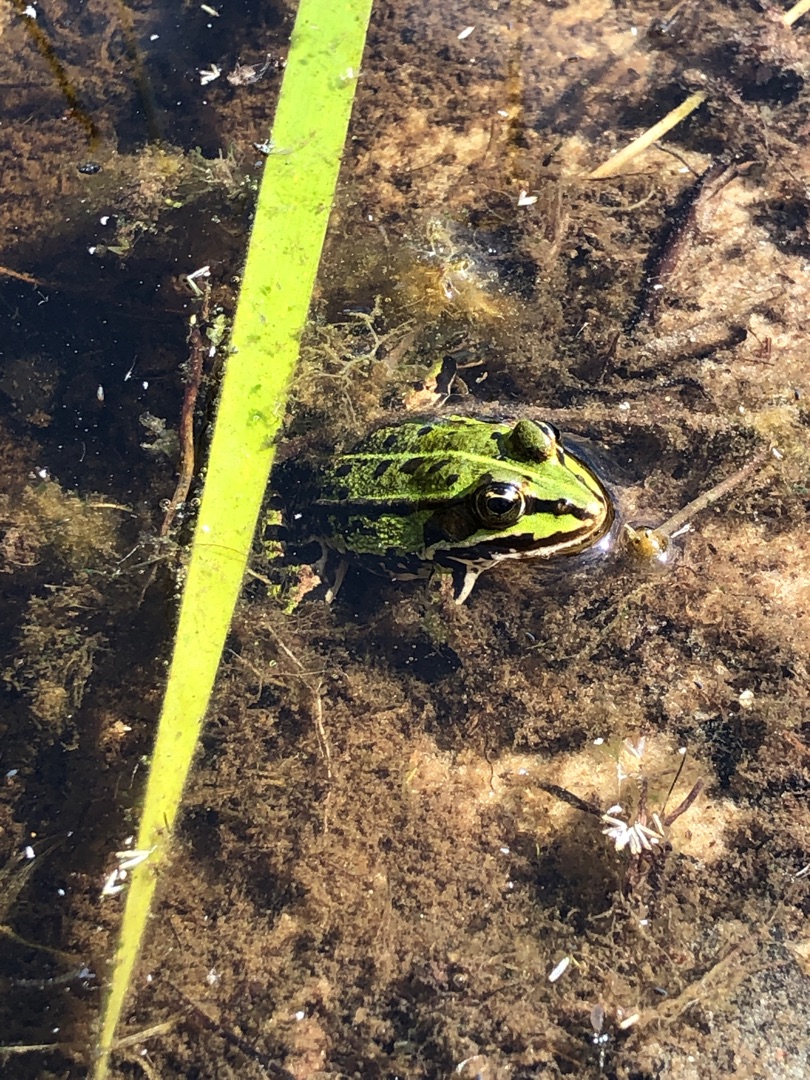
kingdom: Animalia
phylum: Chordata
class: Amphibia
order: Anura
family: Ranidae
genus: Pelophylax
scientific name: Pelophylax lessonae
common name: Grøn frø
